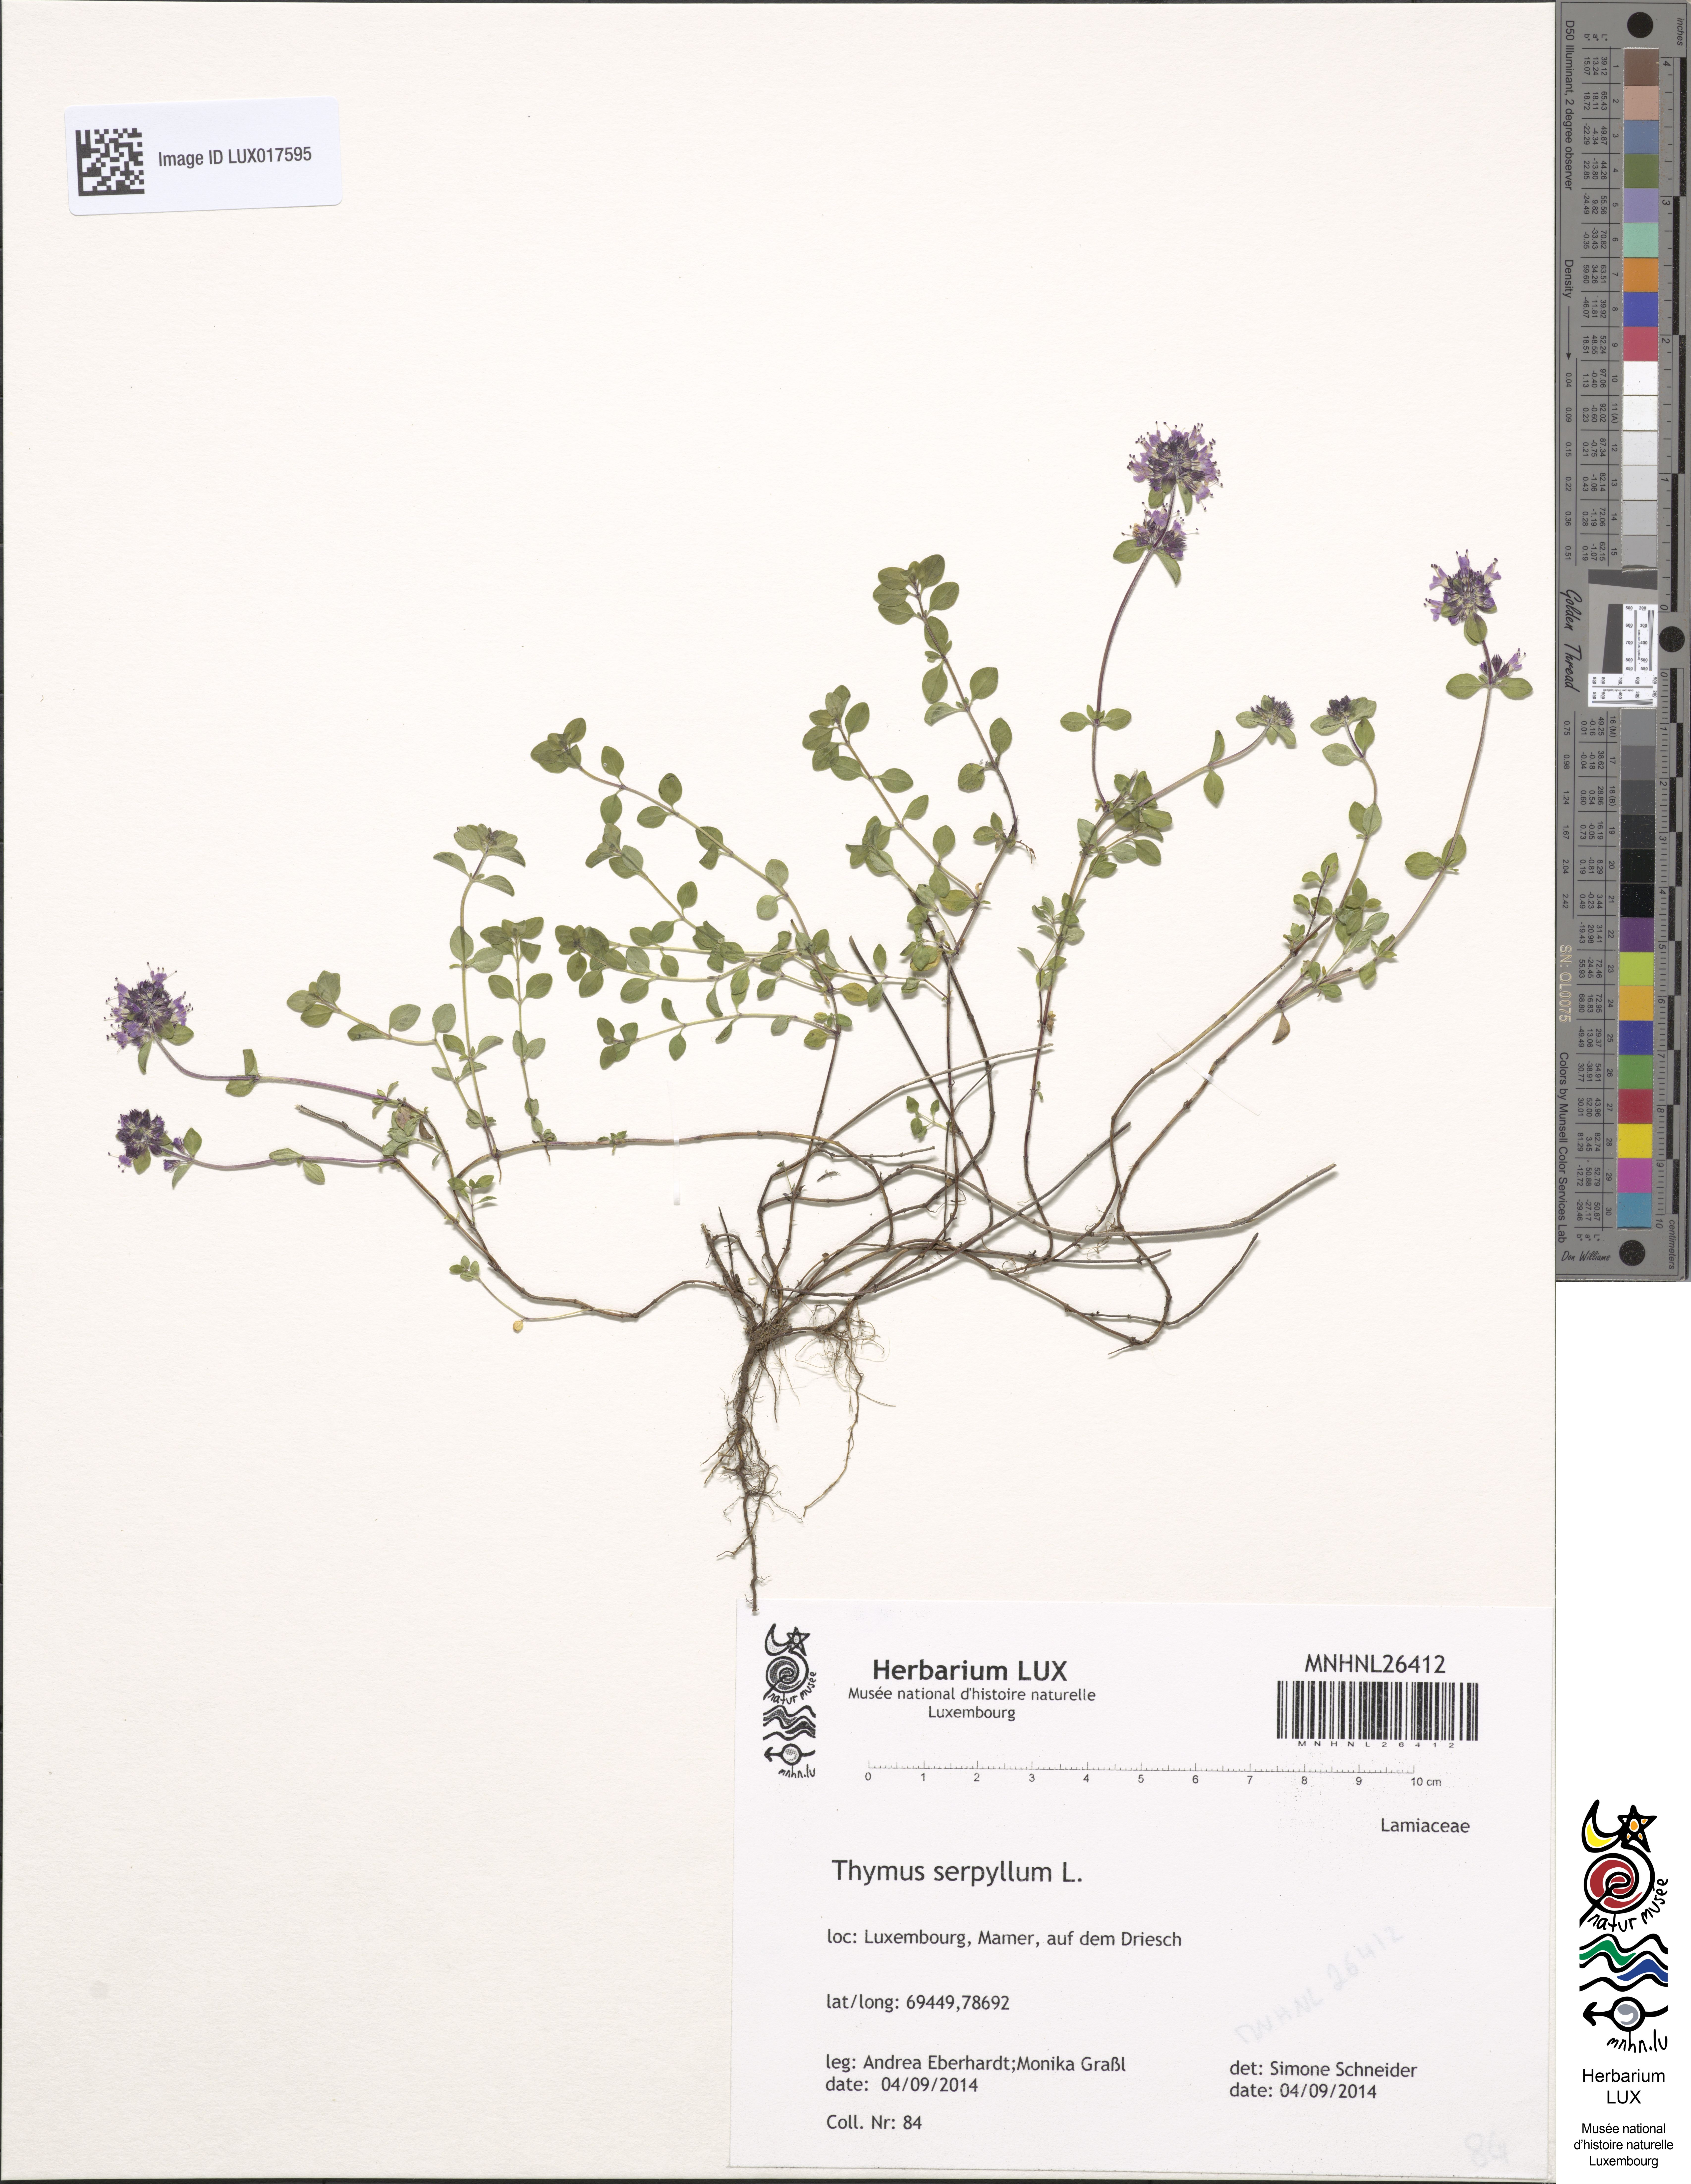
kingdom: Plantae
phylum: Tracheophyta
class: Magnoliopsida
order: Lamiales
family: Lamiaceae
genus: Thymus
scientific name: Thymus serpyllum
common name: Breckland thyme
